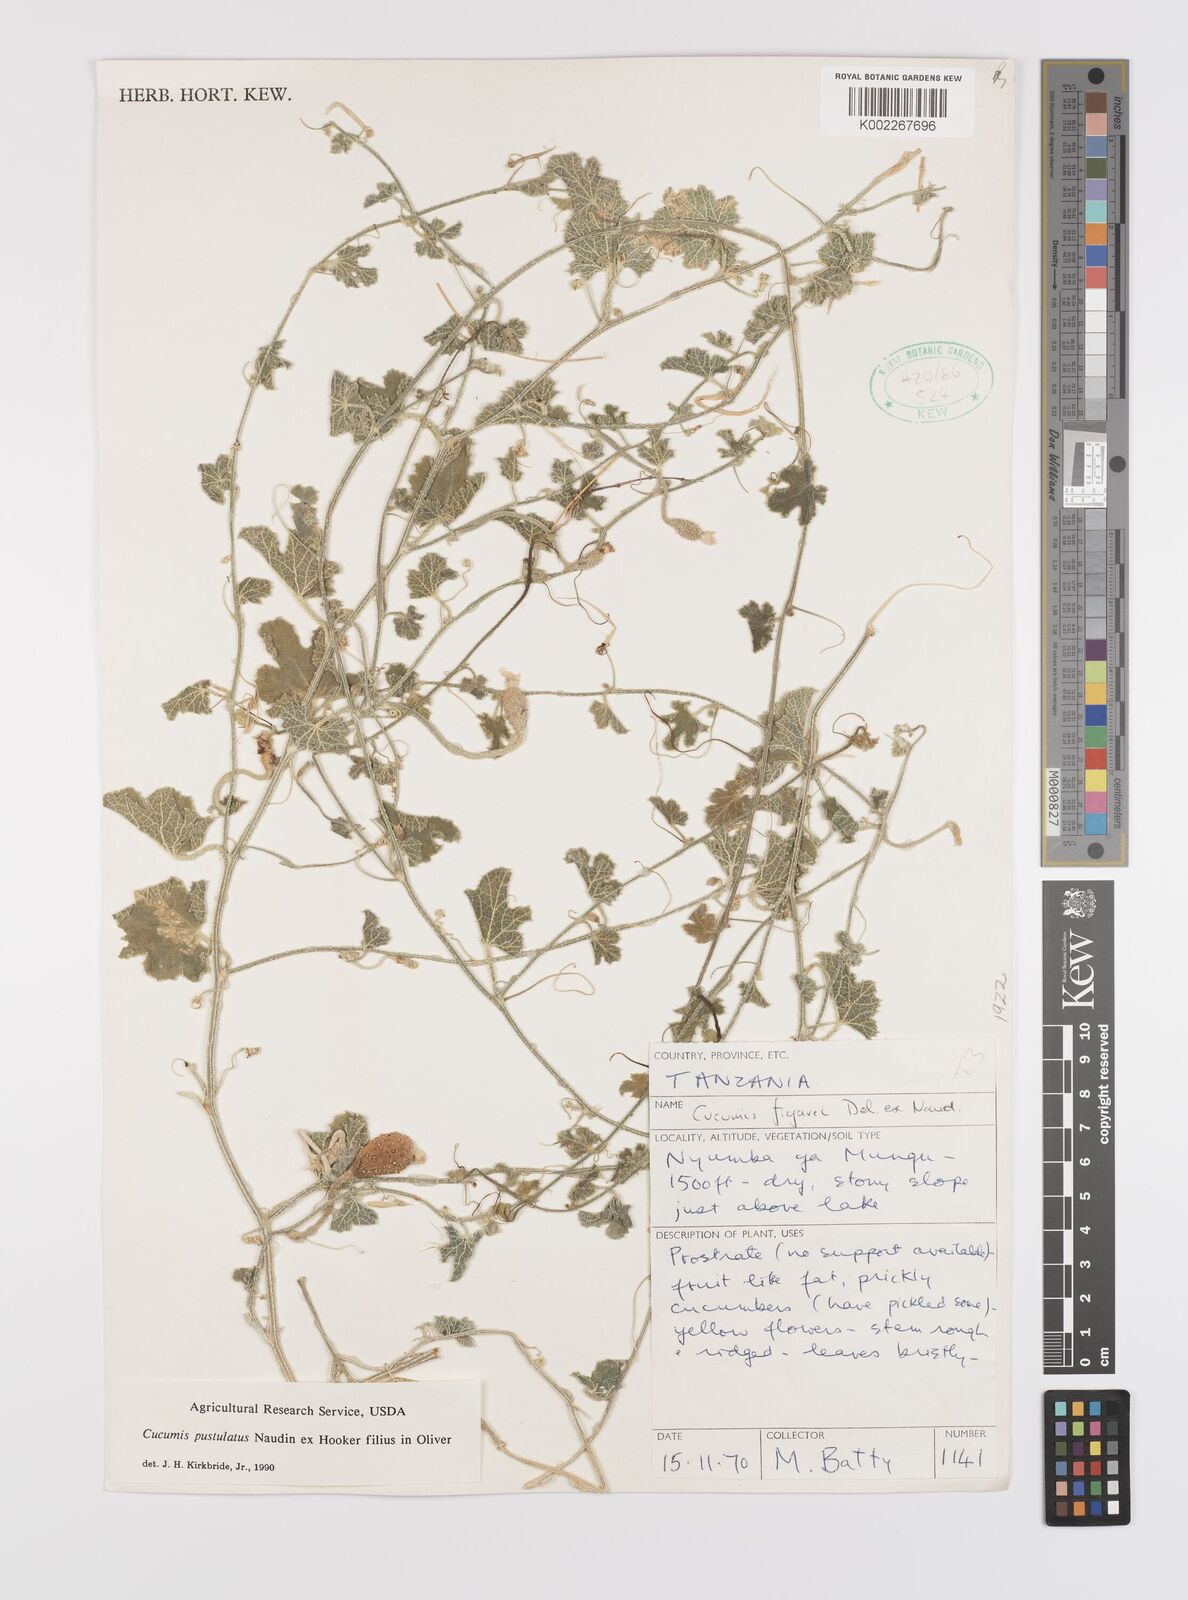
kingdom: Plantae
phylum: Tracheophyta
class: Magnoliopsida
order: Cucurbitales
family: Cucurbitaceae
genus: Cucumis
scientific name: Cucumis
